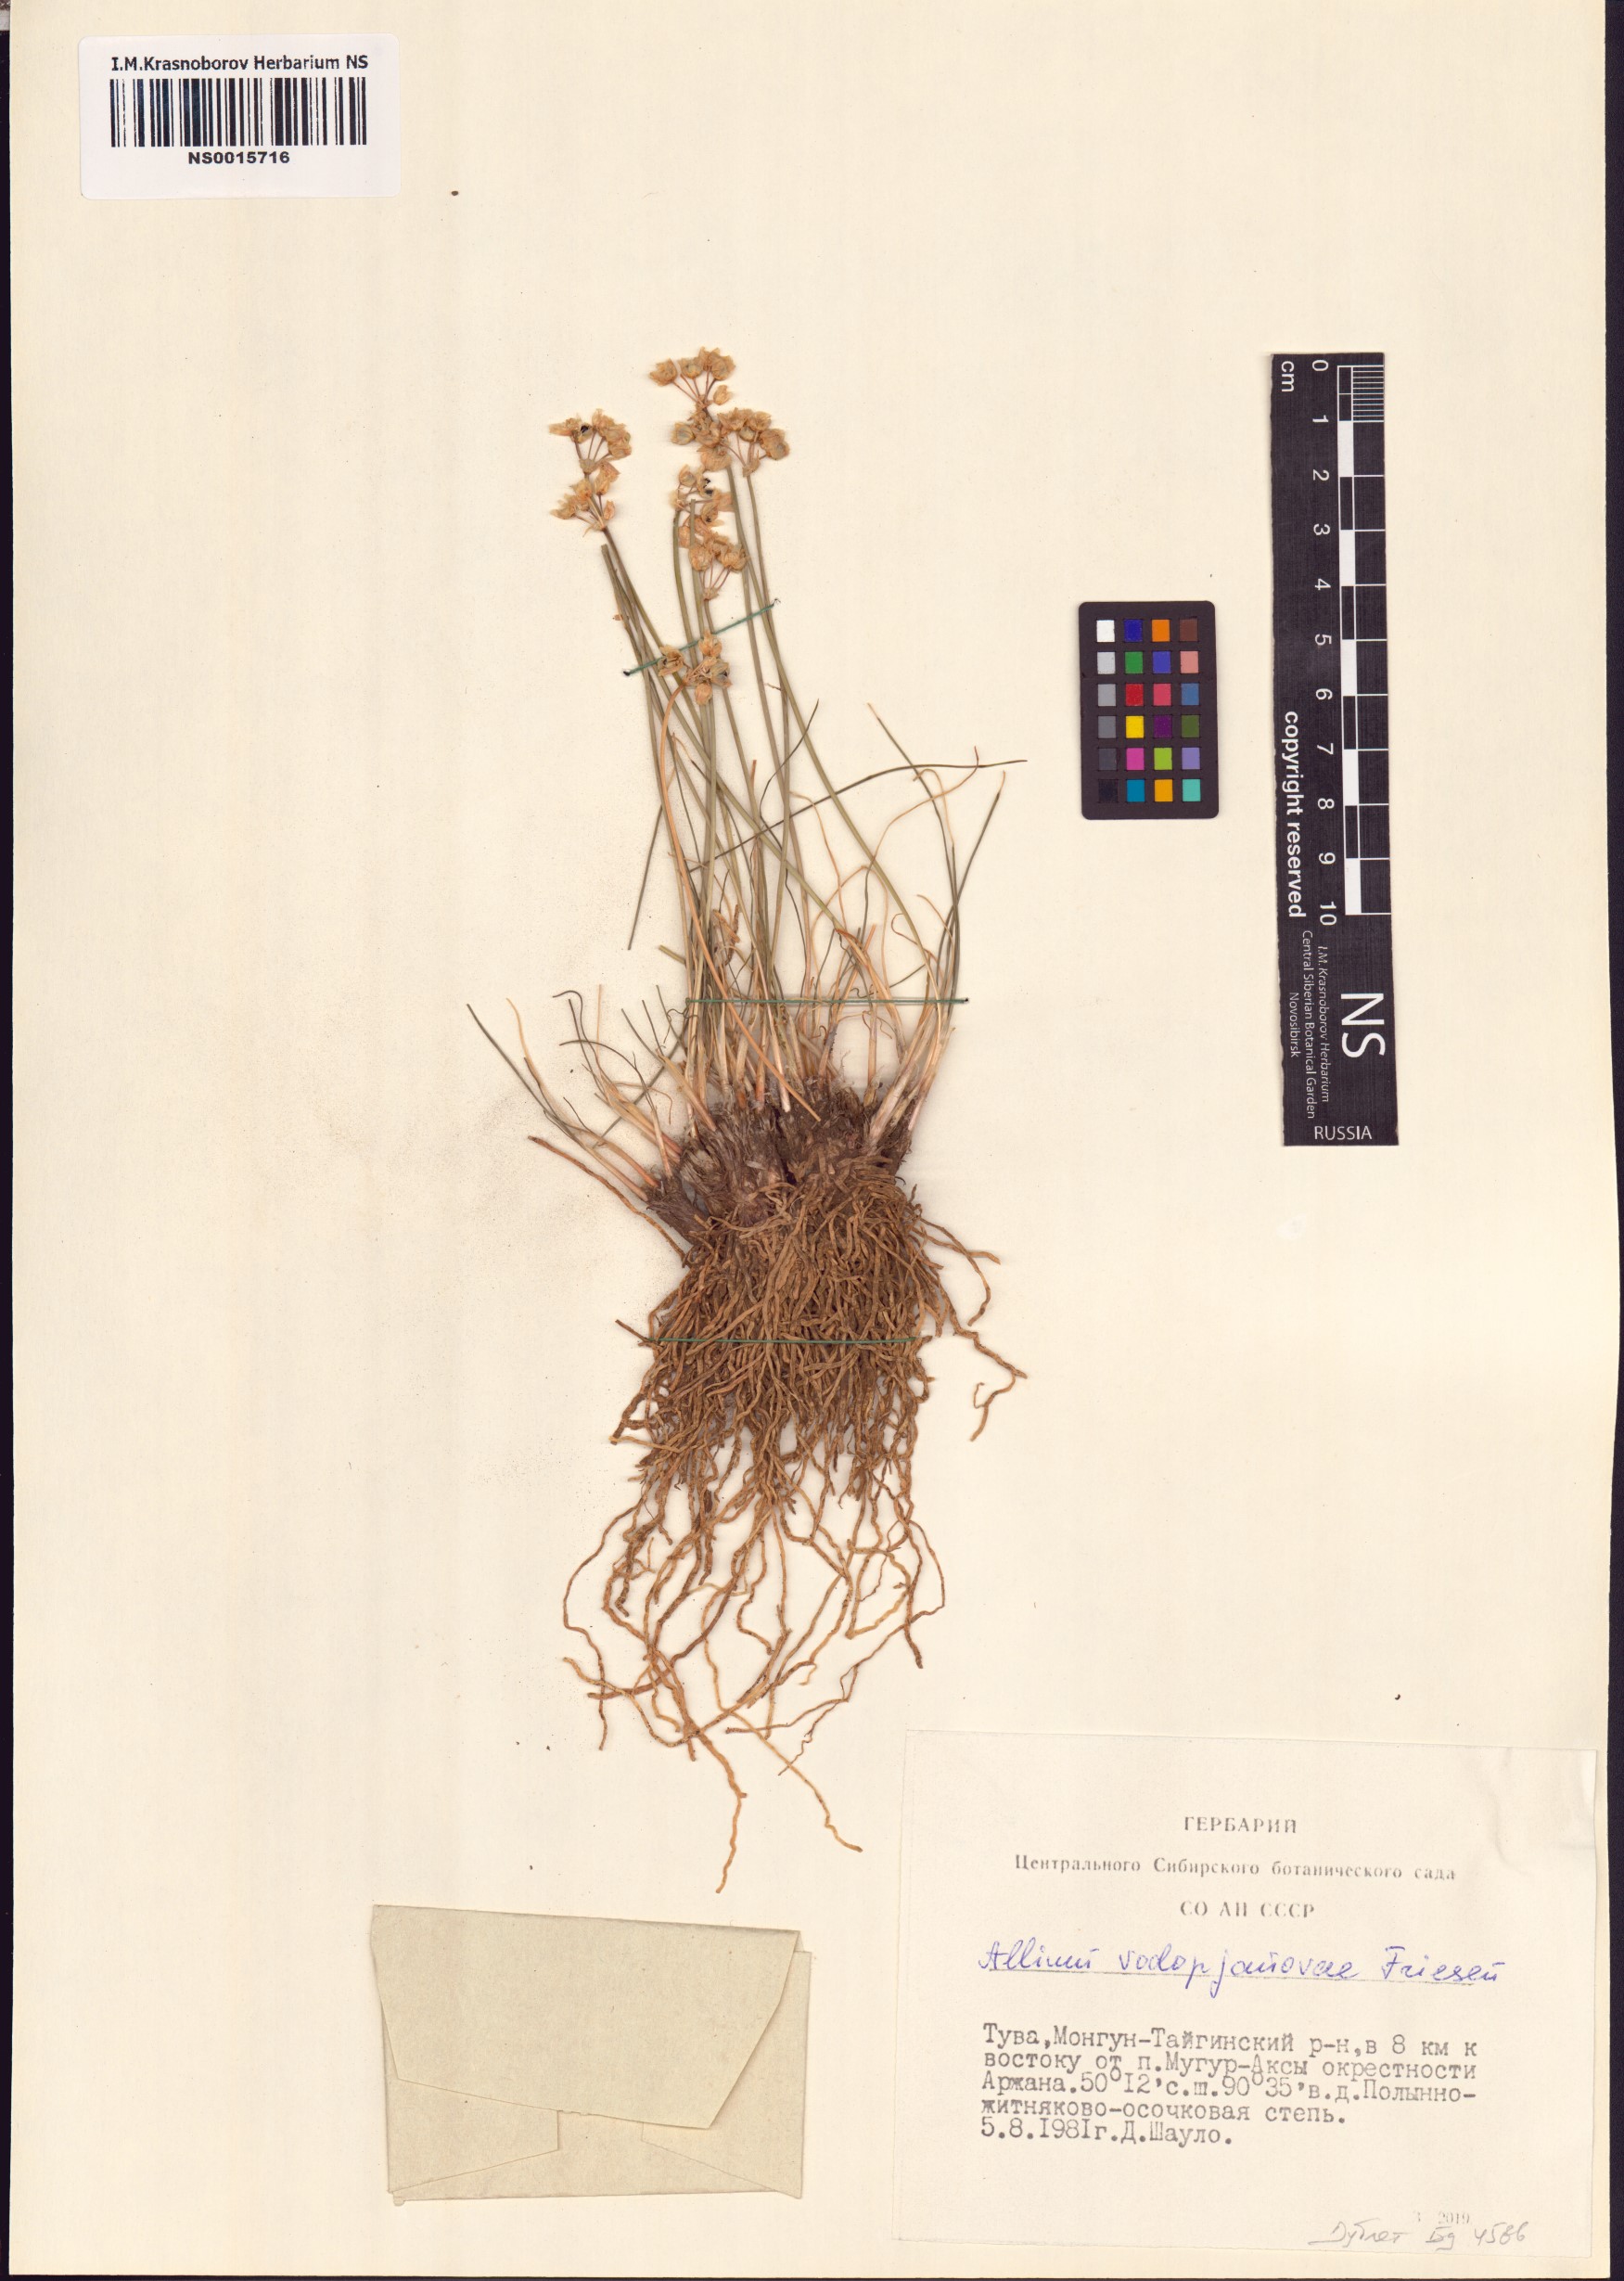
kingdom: Plantae
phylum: Tracheophyta
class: Liliopsida
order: Asparagales
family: Amaryllidaceae
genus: Allium
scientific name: Allium vodopjanovae
